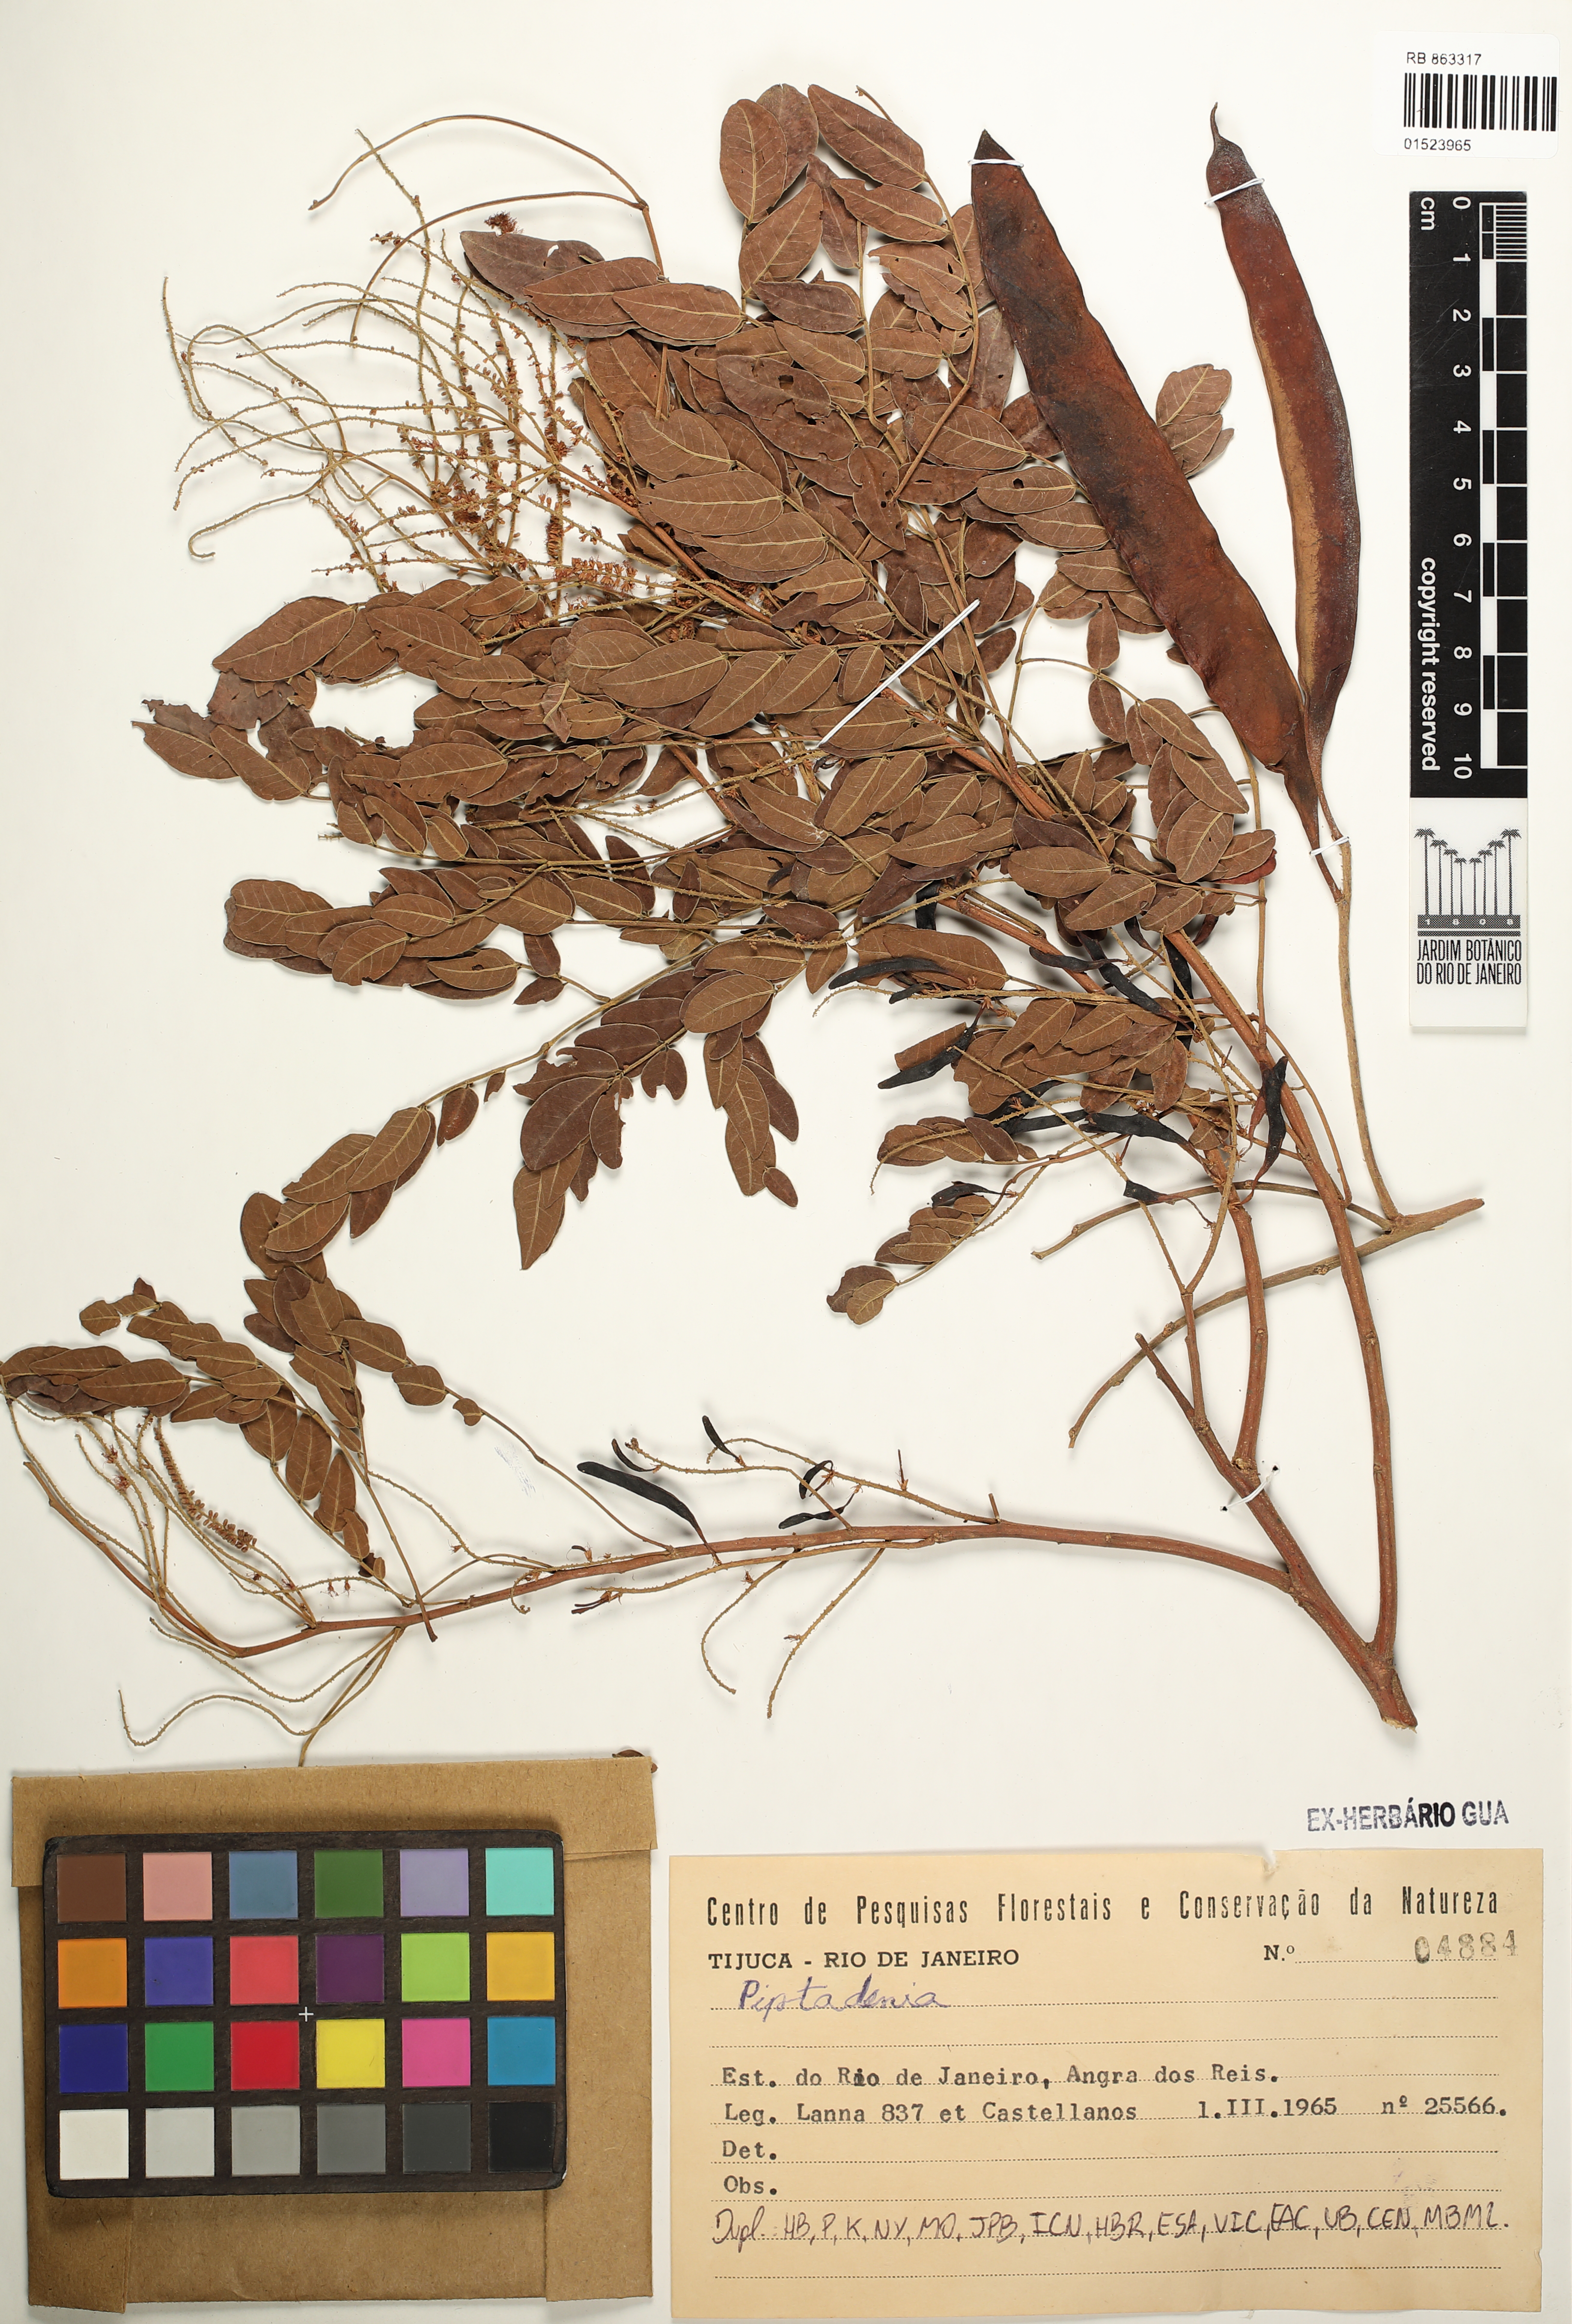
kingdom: Plantae
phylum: Tracheophyta
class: Magnoliopsida
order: Fabales
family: Fabaceae
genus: Piptadenia
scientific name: Piptadenia
